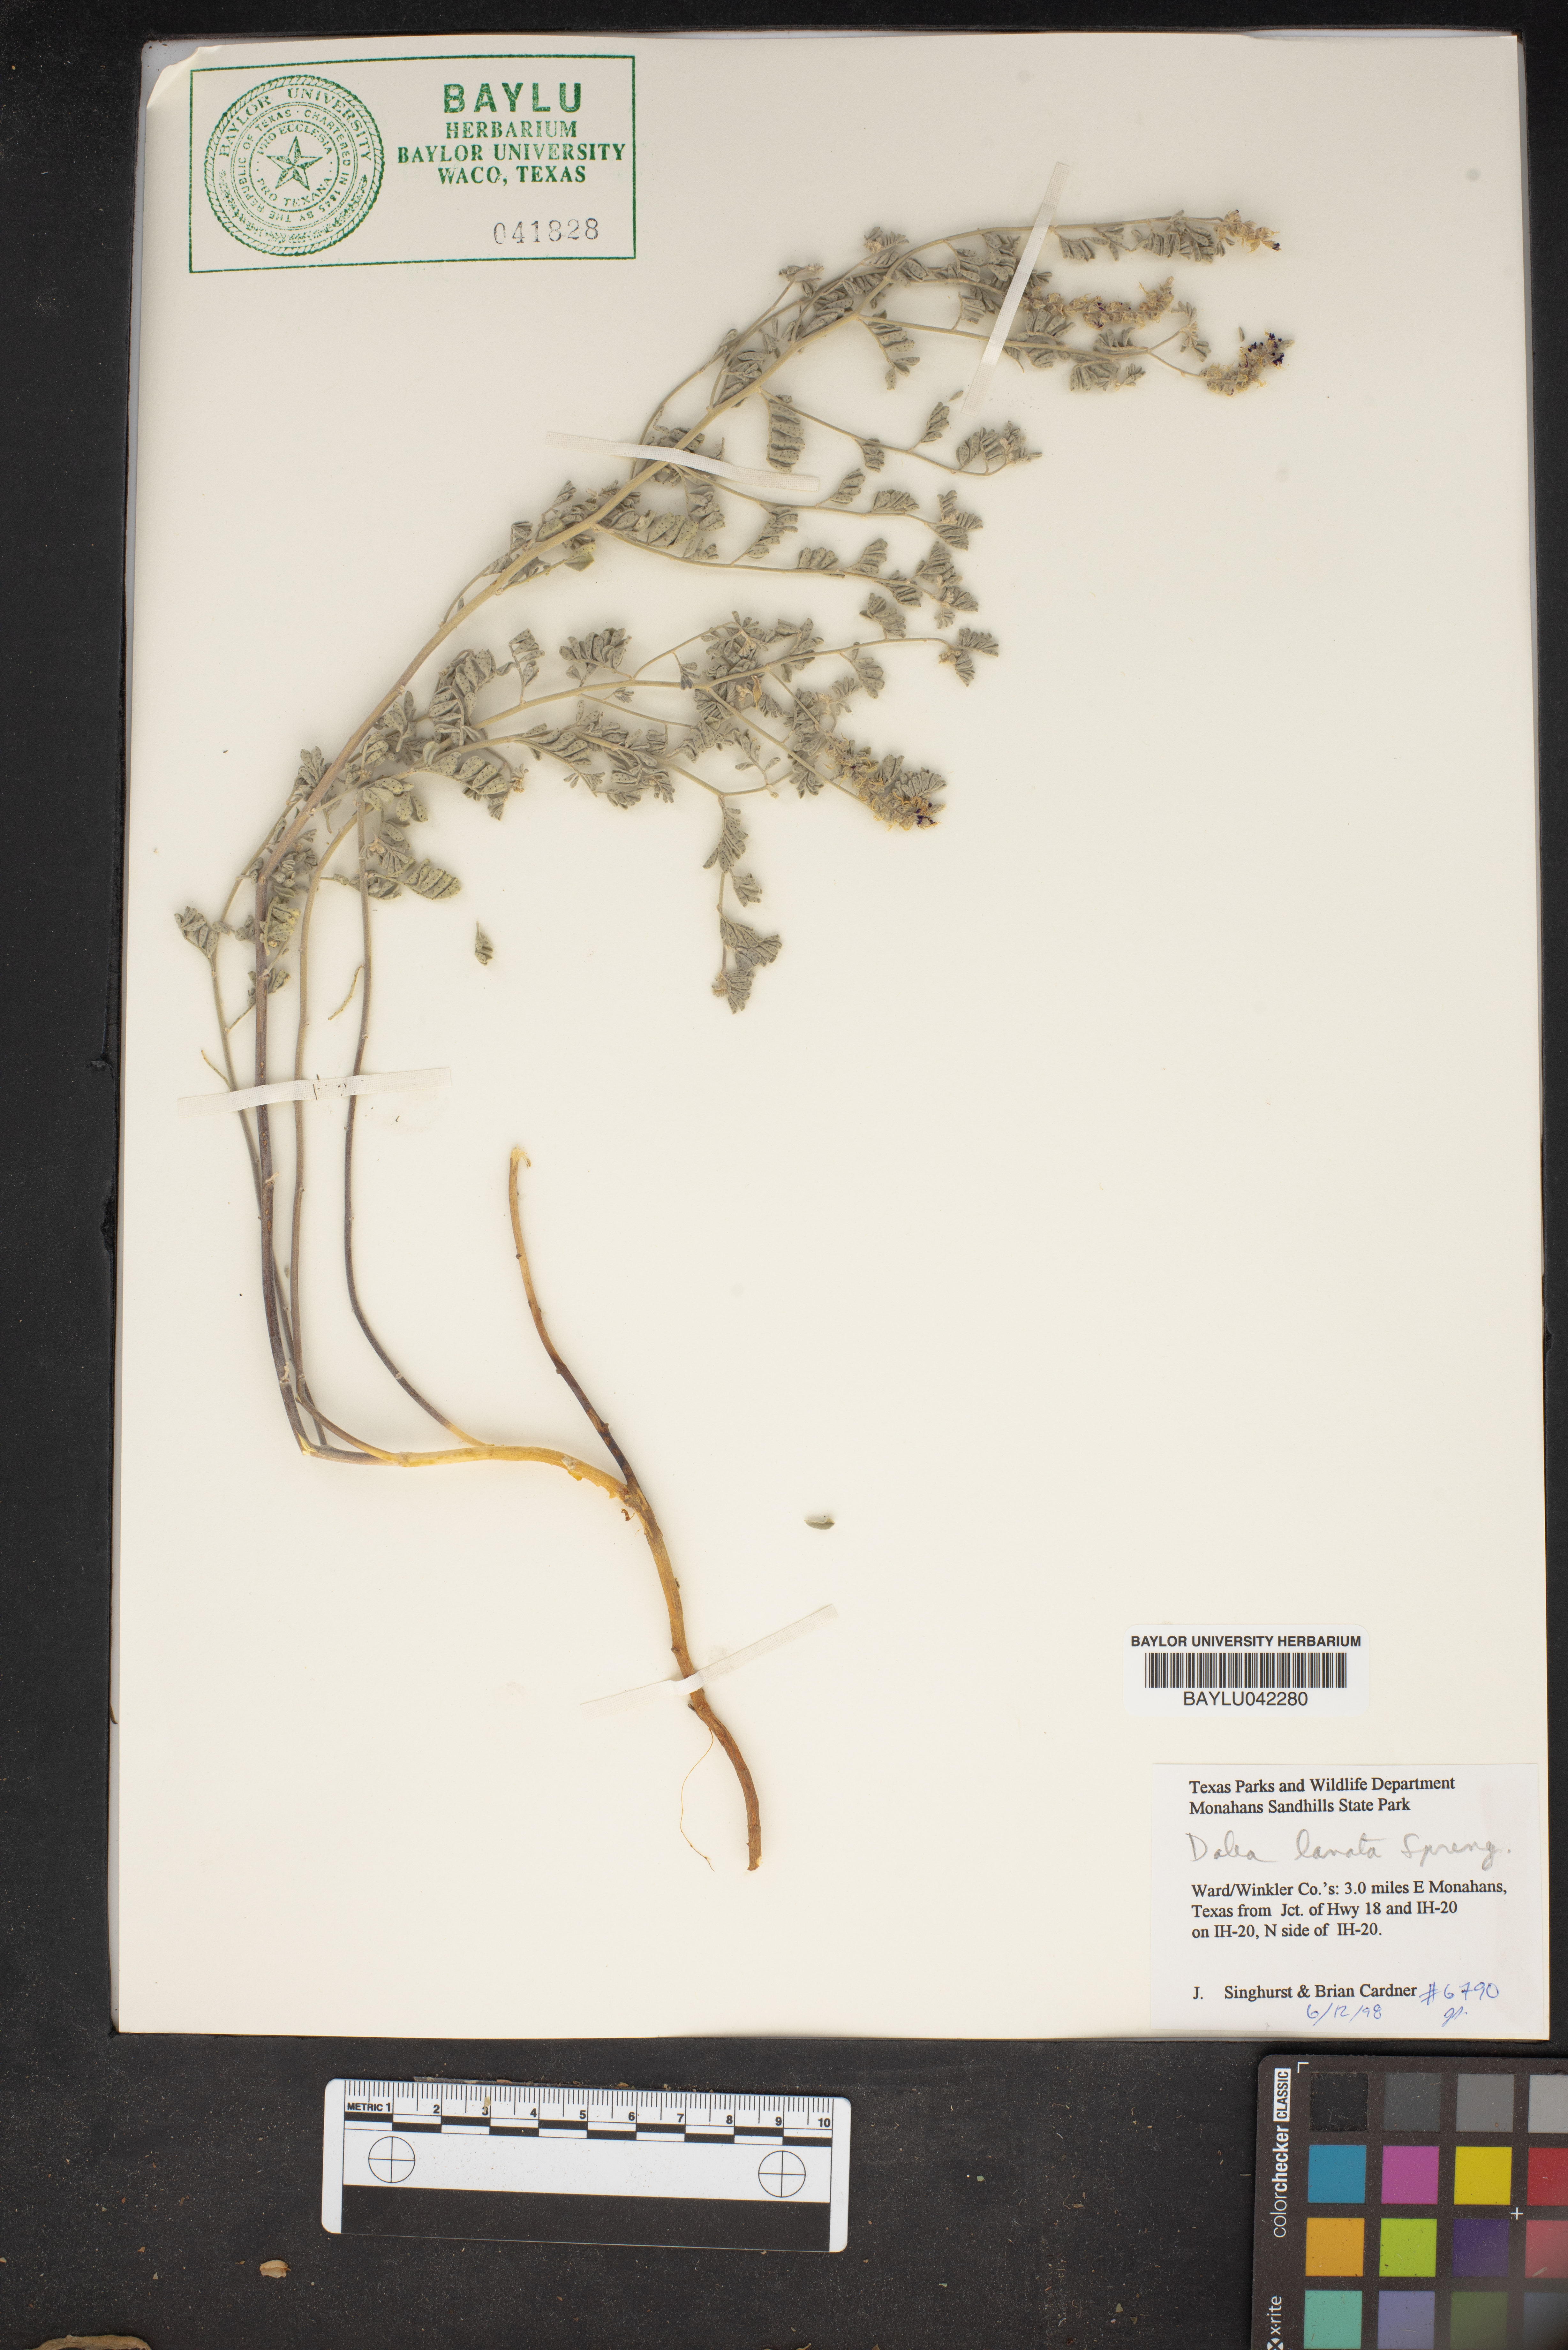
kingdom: Plantae
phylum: Tracheophyta
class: Magnoliopsida
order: Fabales
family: Fabaceae
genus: Dalea
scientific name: Dalea lanata
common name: Woolly dalea
